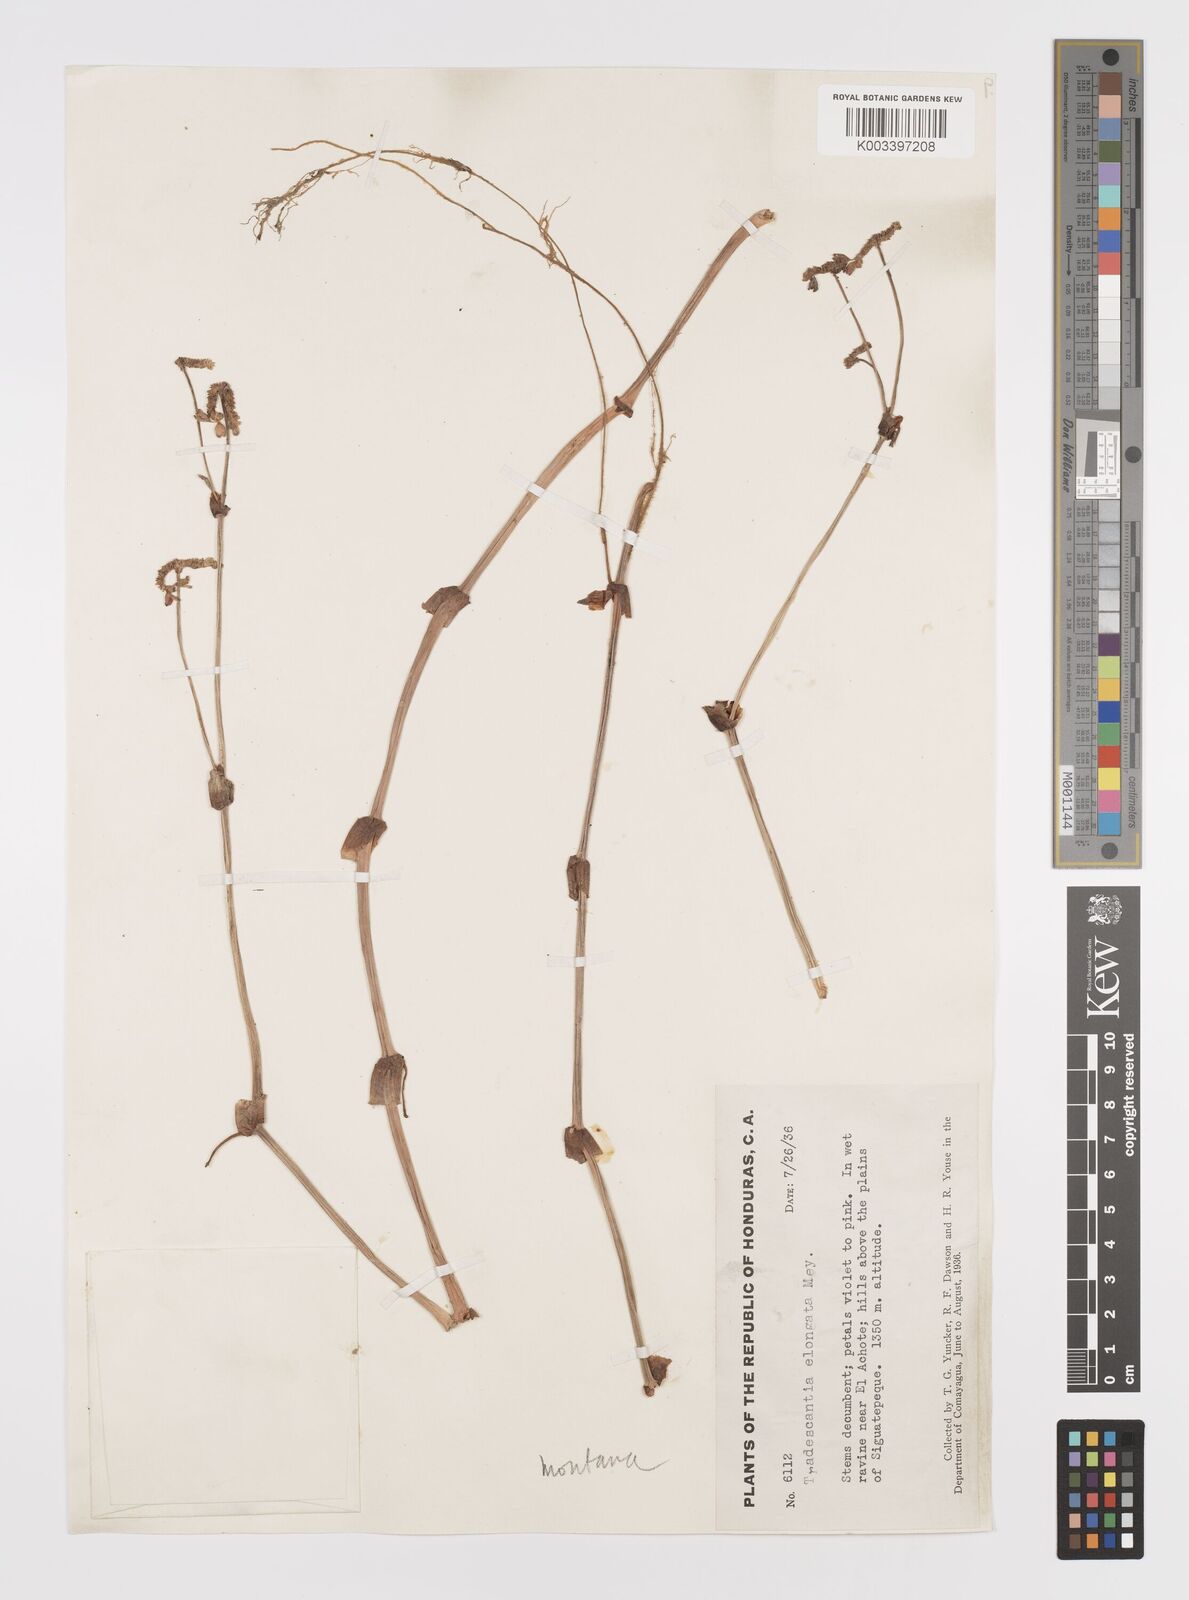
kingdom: Plantae
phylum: Tracheophyta
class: Liliopsida
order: Commelinales
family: Commelinaceae
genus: Callisia
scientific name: Callisia montana
